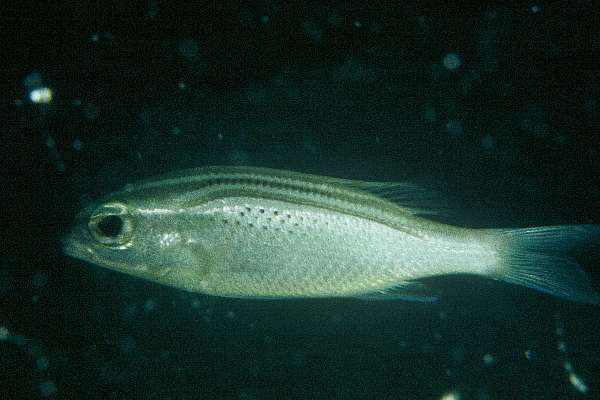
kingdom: Animalia
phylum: Chordata
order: Perciformes
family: Nemipteridae
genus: Scolopsis
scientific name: Scolopsis ghanam
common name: Arabian monocle bream
